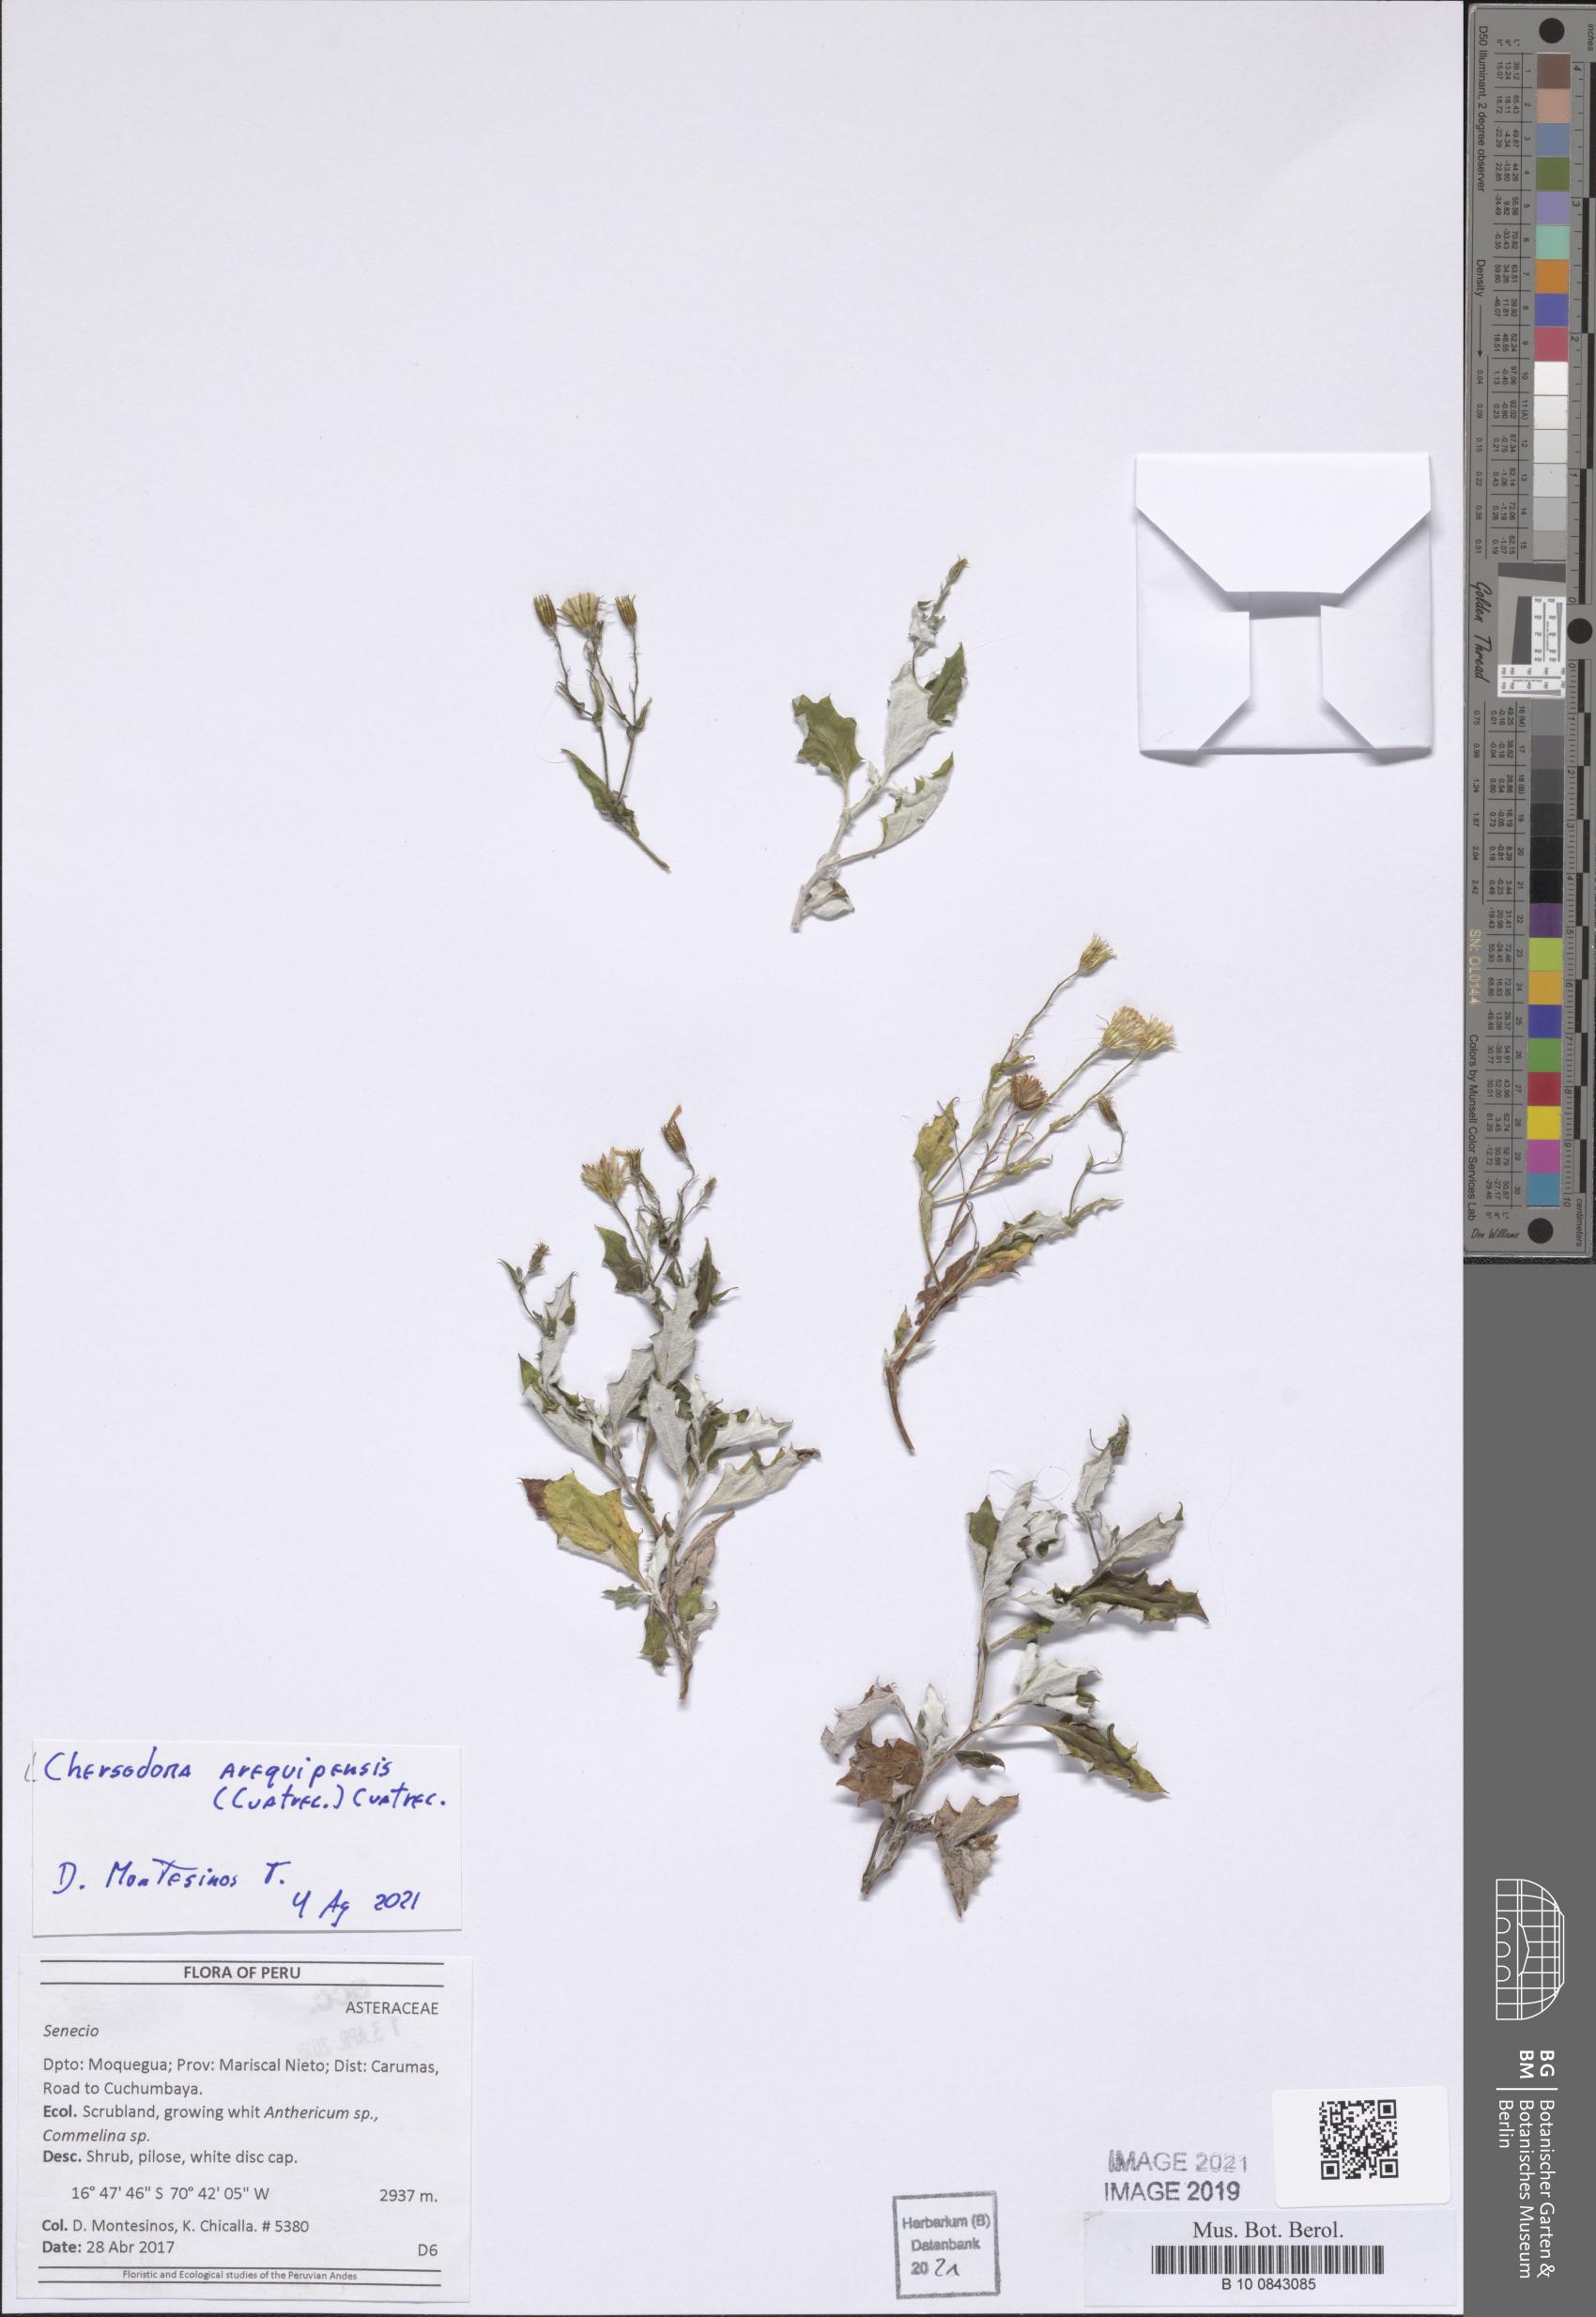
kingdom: Plantae
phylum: Tracheophyta
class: Magnoliopsida
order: Asterales
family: Asteraceae
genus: Chersodoma
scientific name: Chersodoma arequipensis
